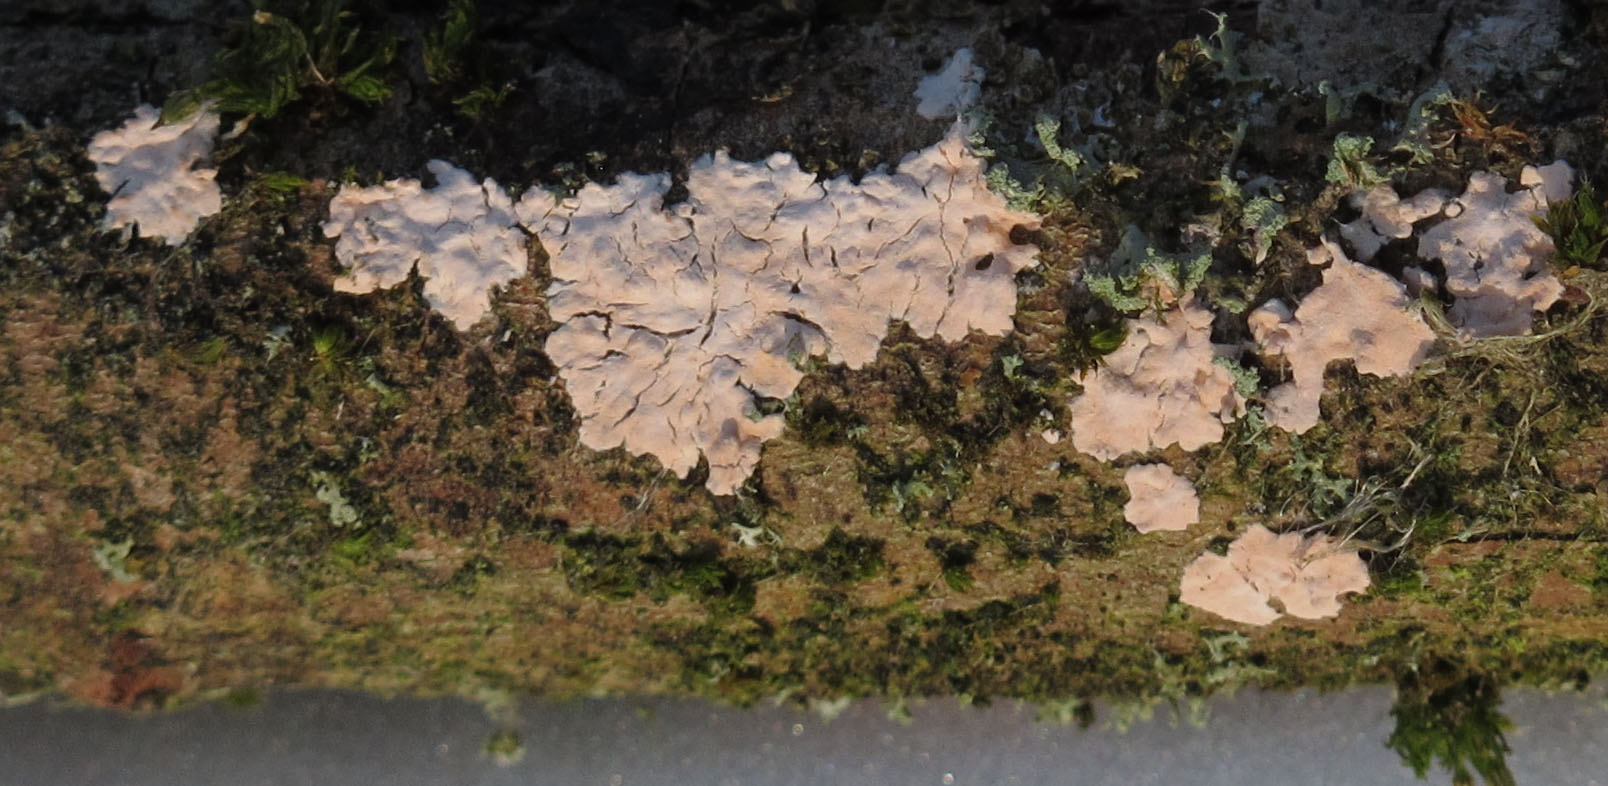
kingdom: Fungi
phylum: Basidiomycota
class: Agaricomycetes
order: Corticiales
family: Corticiaceae
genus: Corticium
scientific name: Corticium roseum
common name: rosa barkskind
